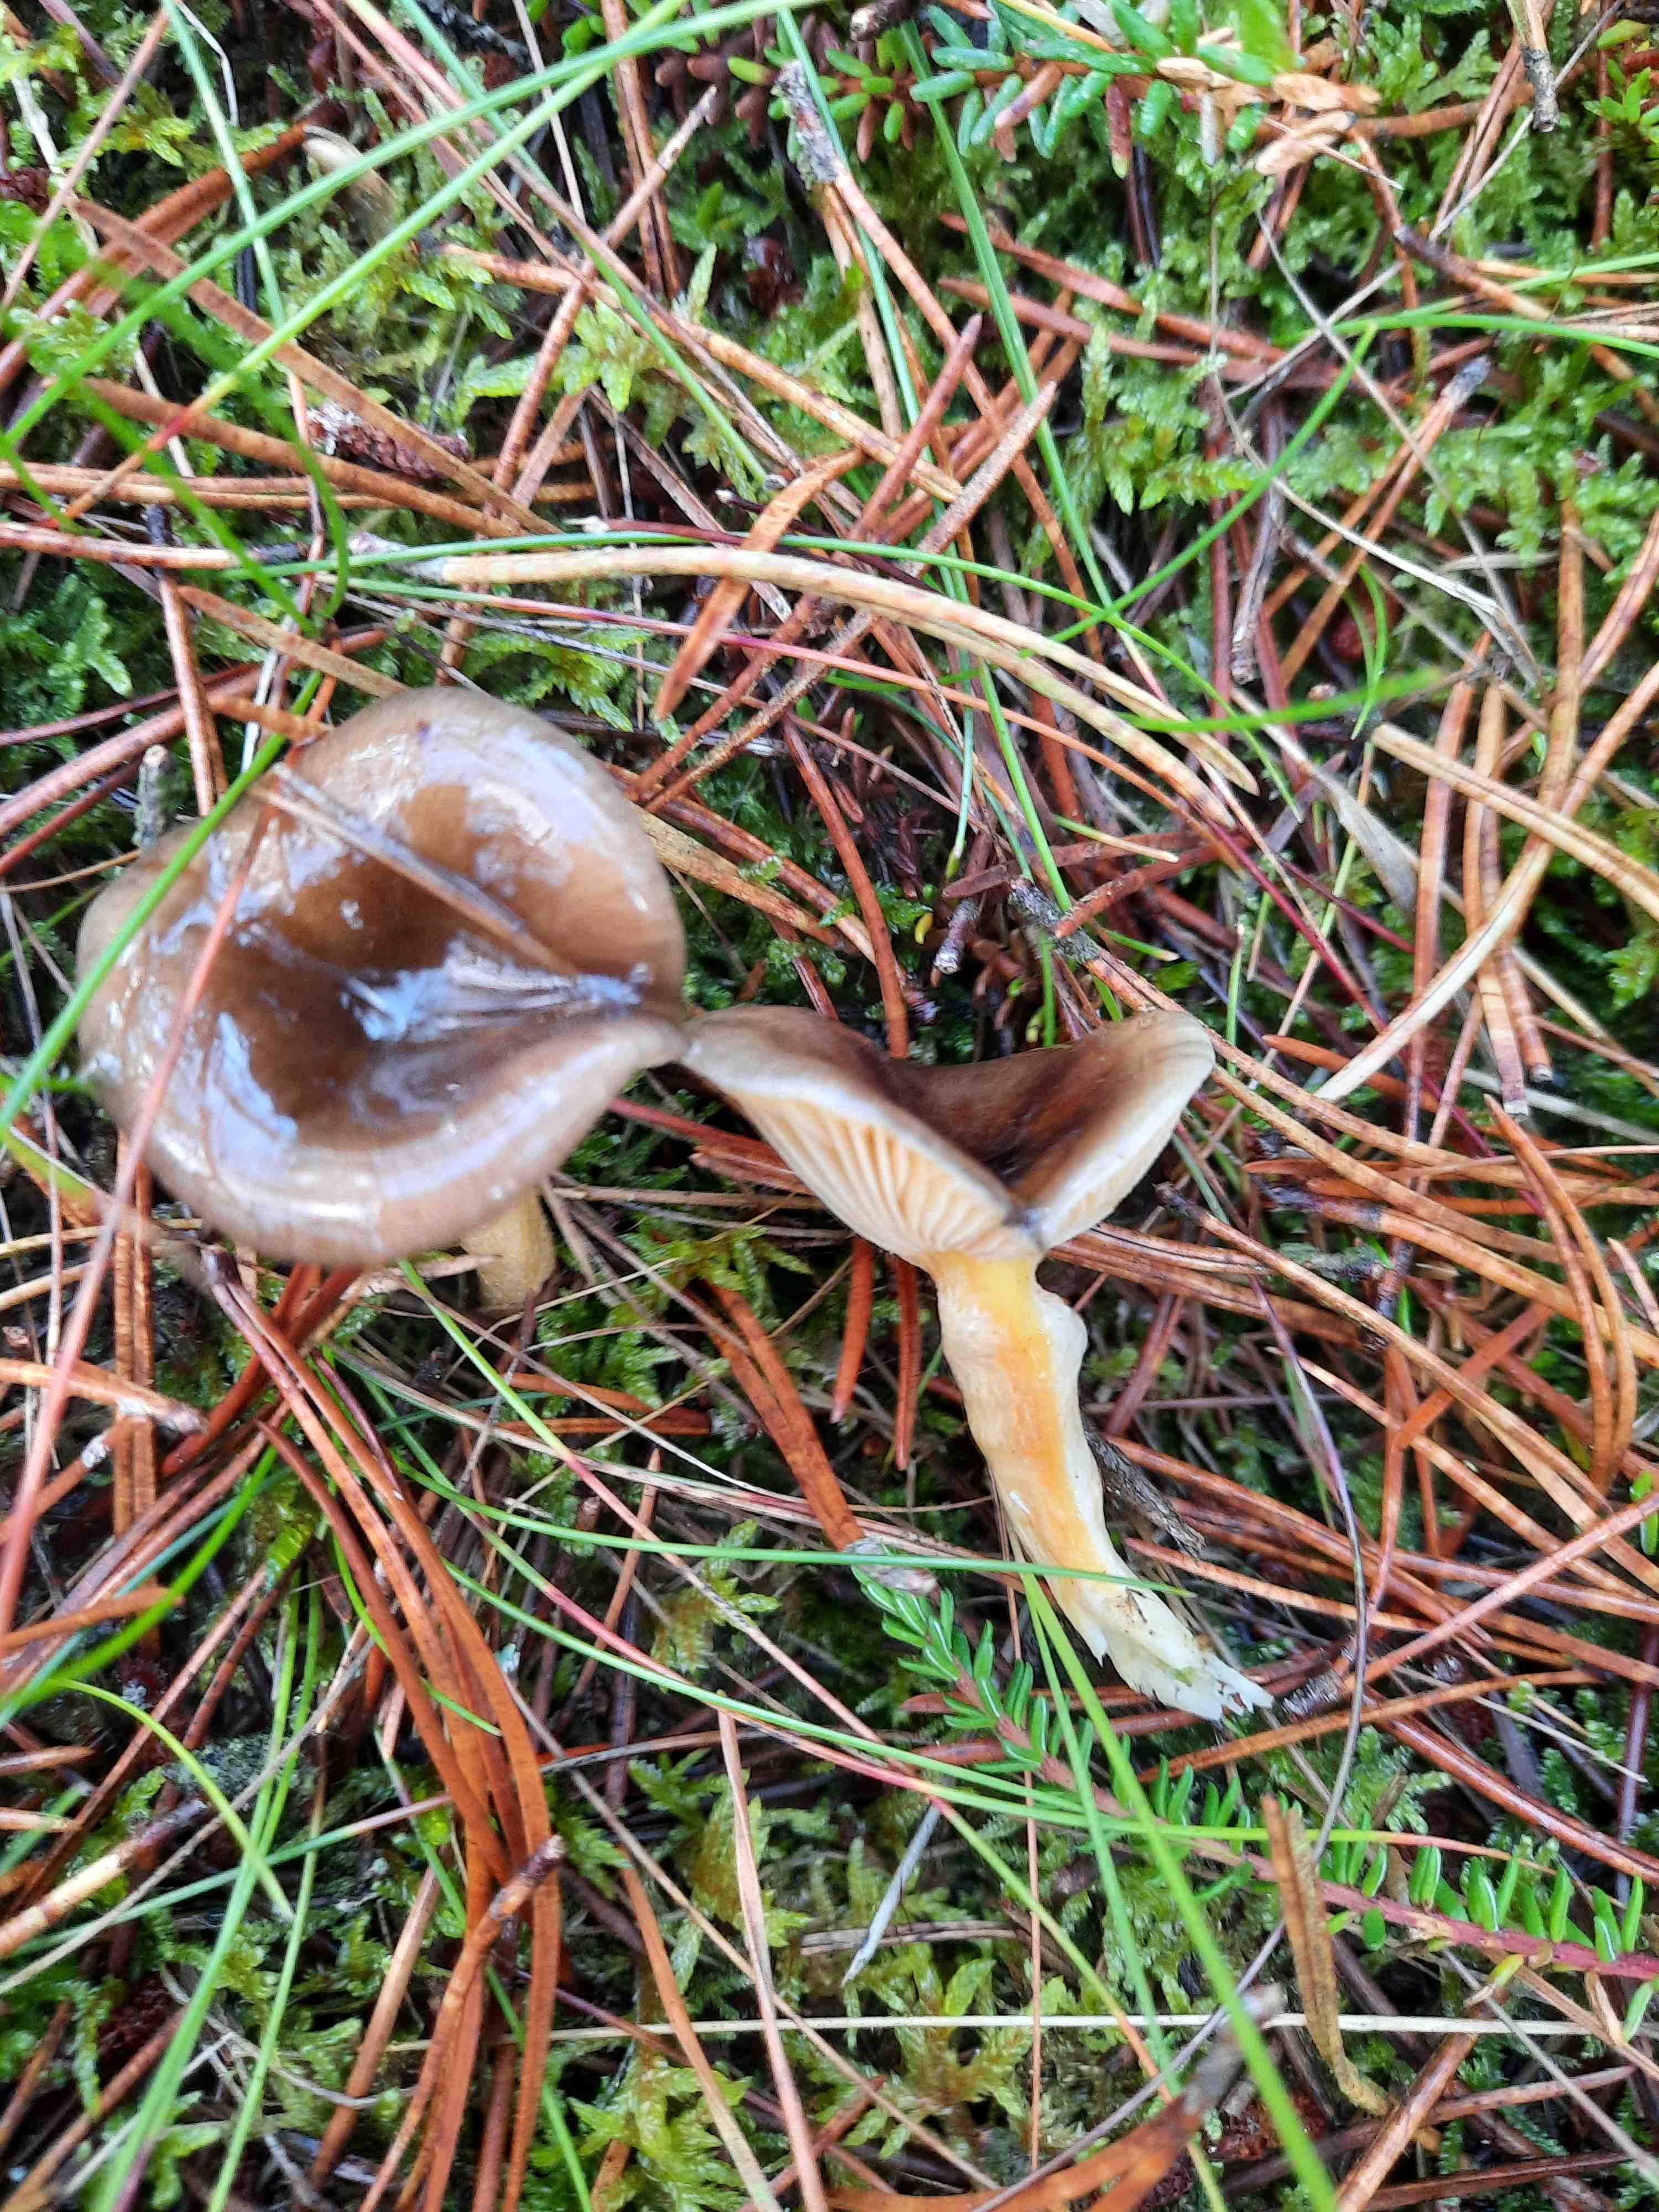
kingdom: Fungi
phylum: Basidiomycota
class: Agaricomycetes
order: Agaricales
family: Hygrophoraceae
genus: Hygrophorus
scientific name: Hygrophorus hypothejus
